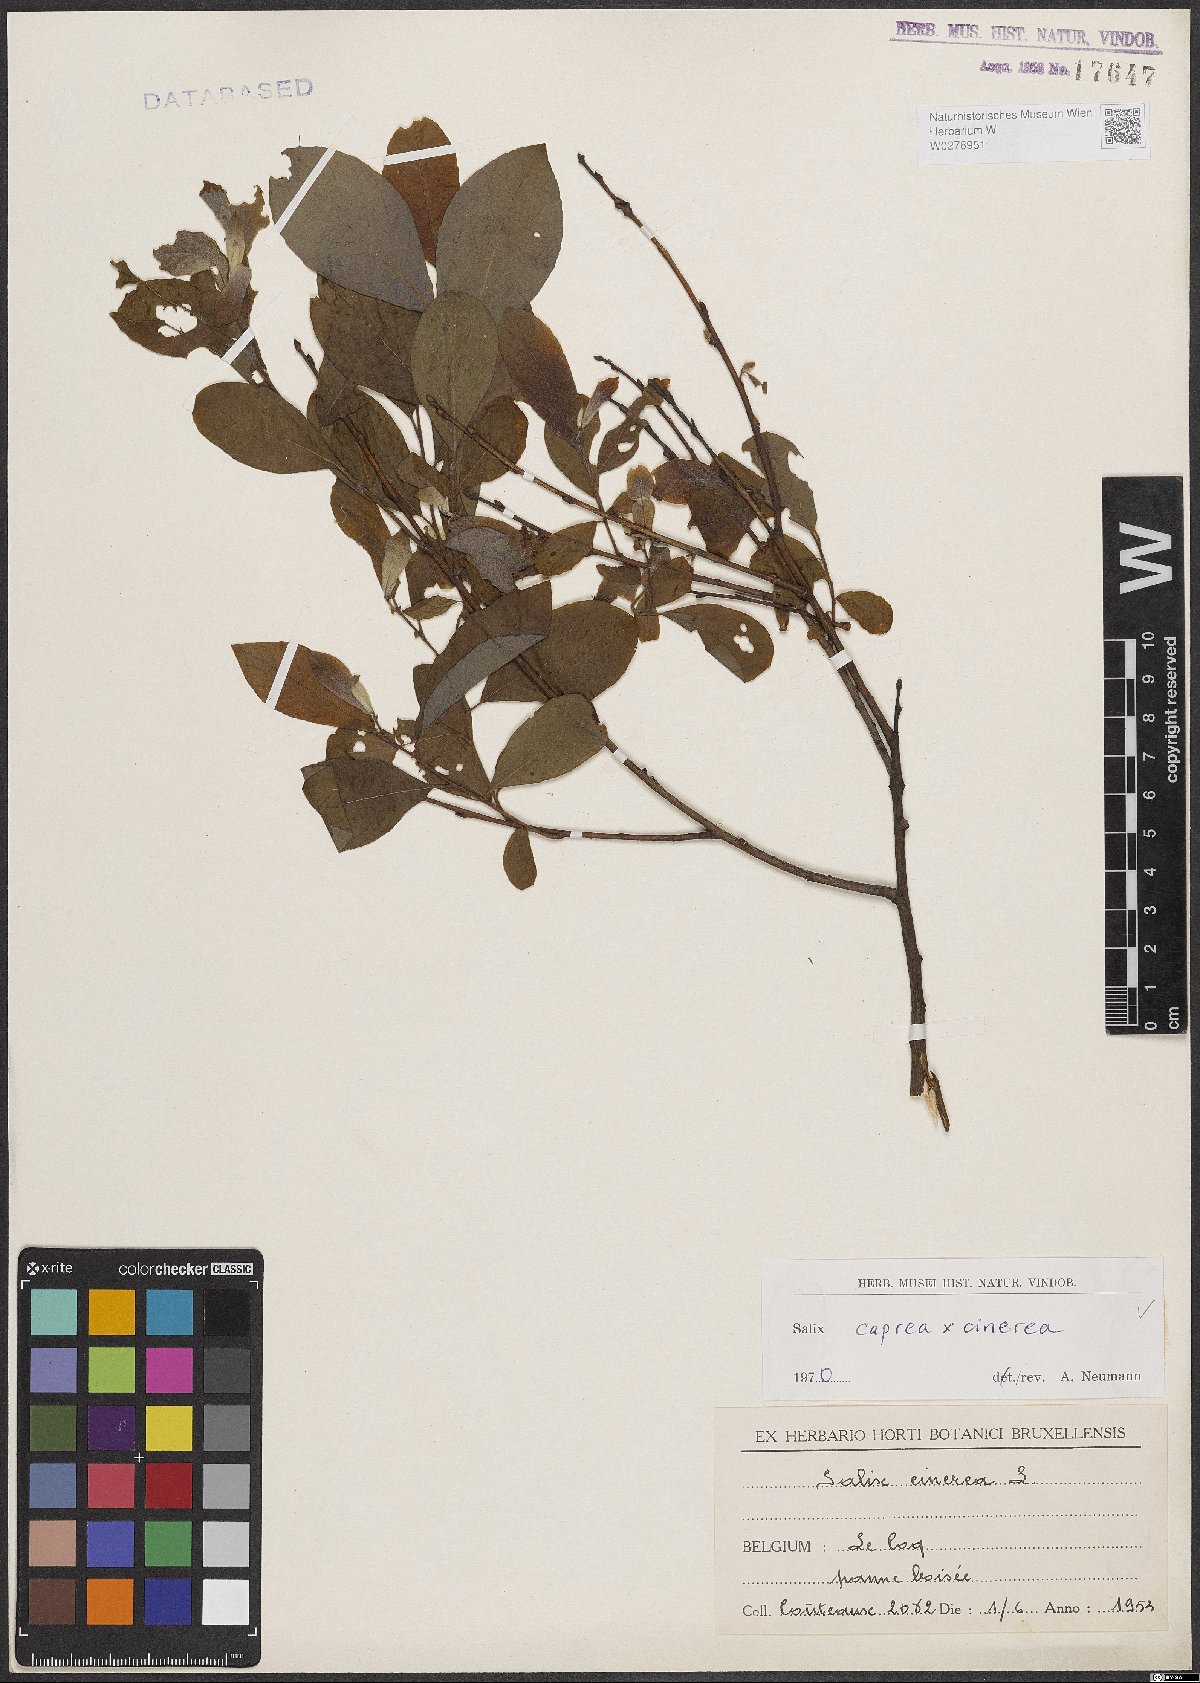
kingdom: Plantae
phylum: Tracheophyta
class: Magnoliopsida
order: Malpighiales
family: Salicaceae
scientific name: Salicaceae
